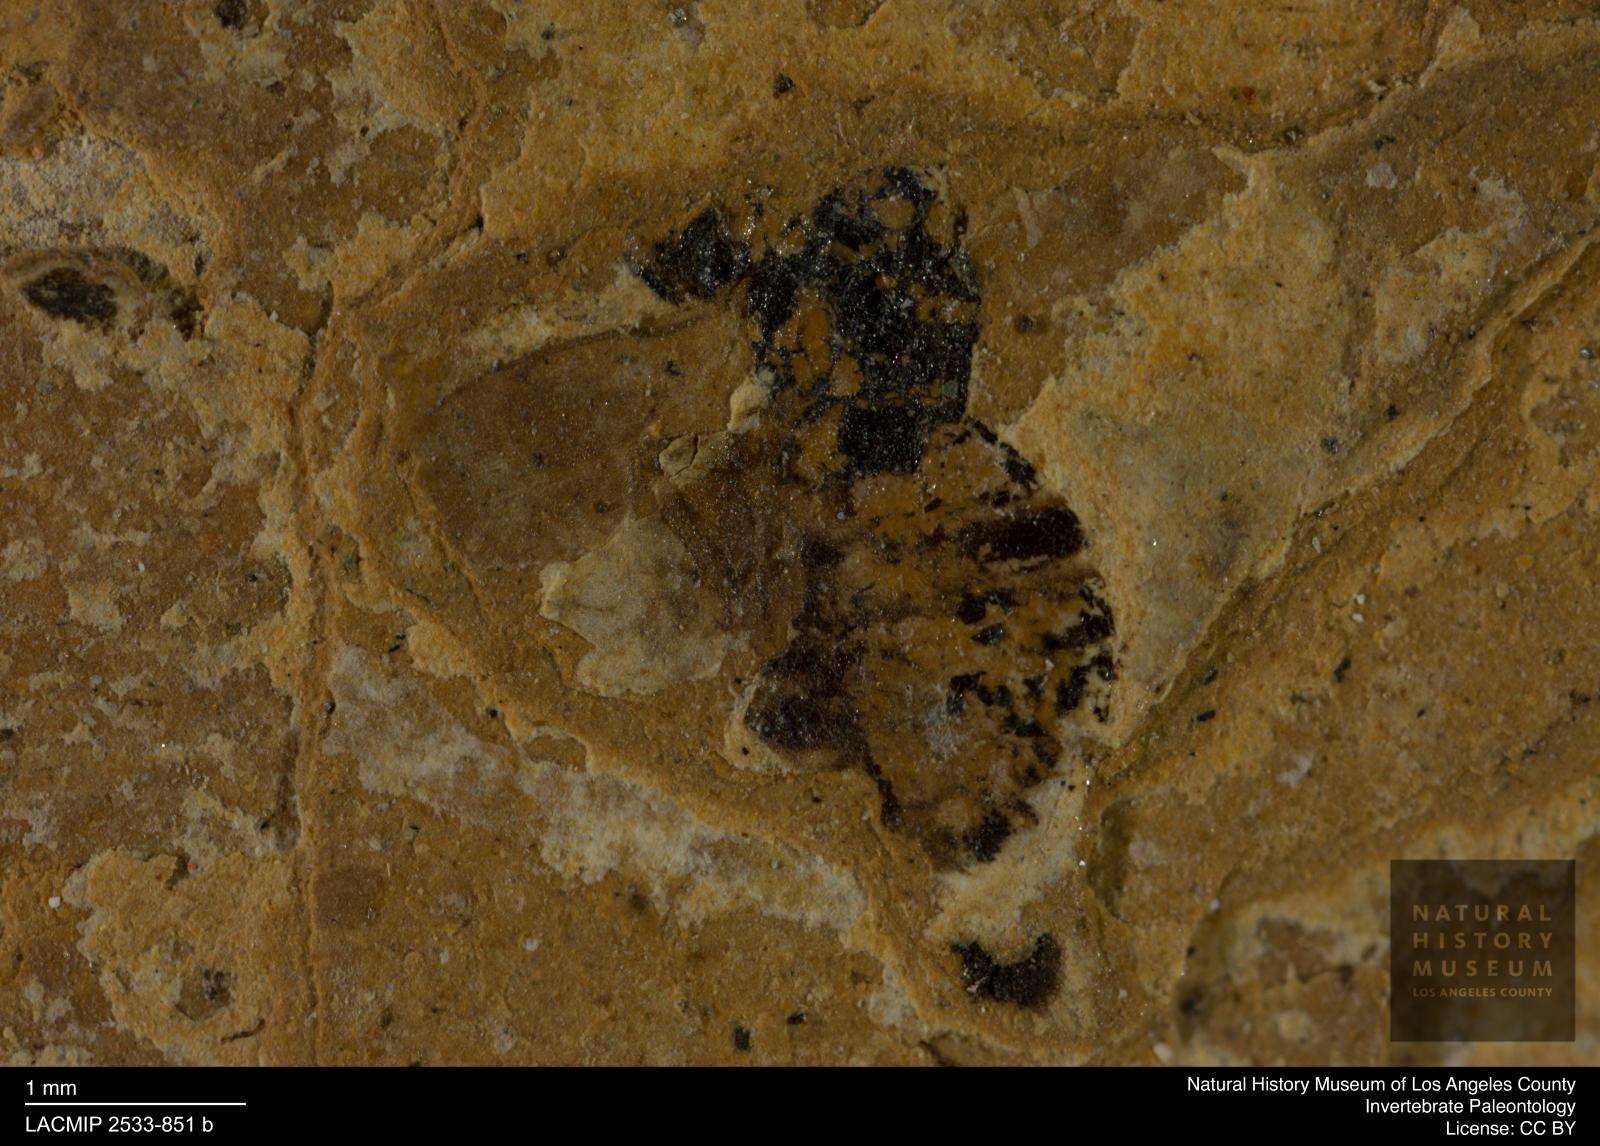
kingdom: Animalia
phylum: Arthropoda
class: Insecta
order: Hymenoptera
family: Pteromalidae
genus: Pteromalus
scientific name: Pteromalus pulchellus
